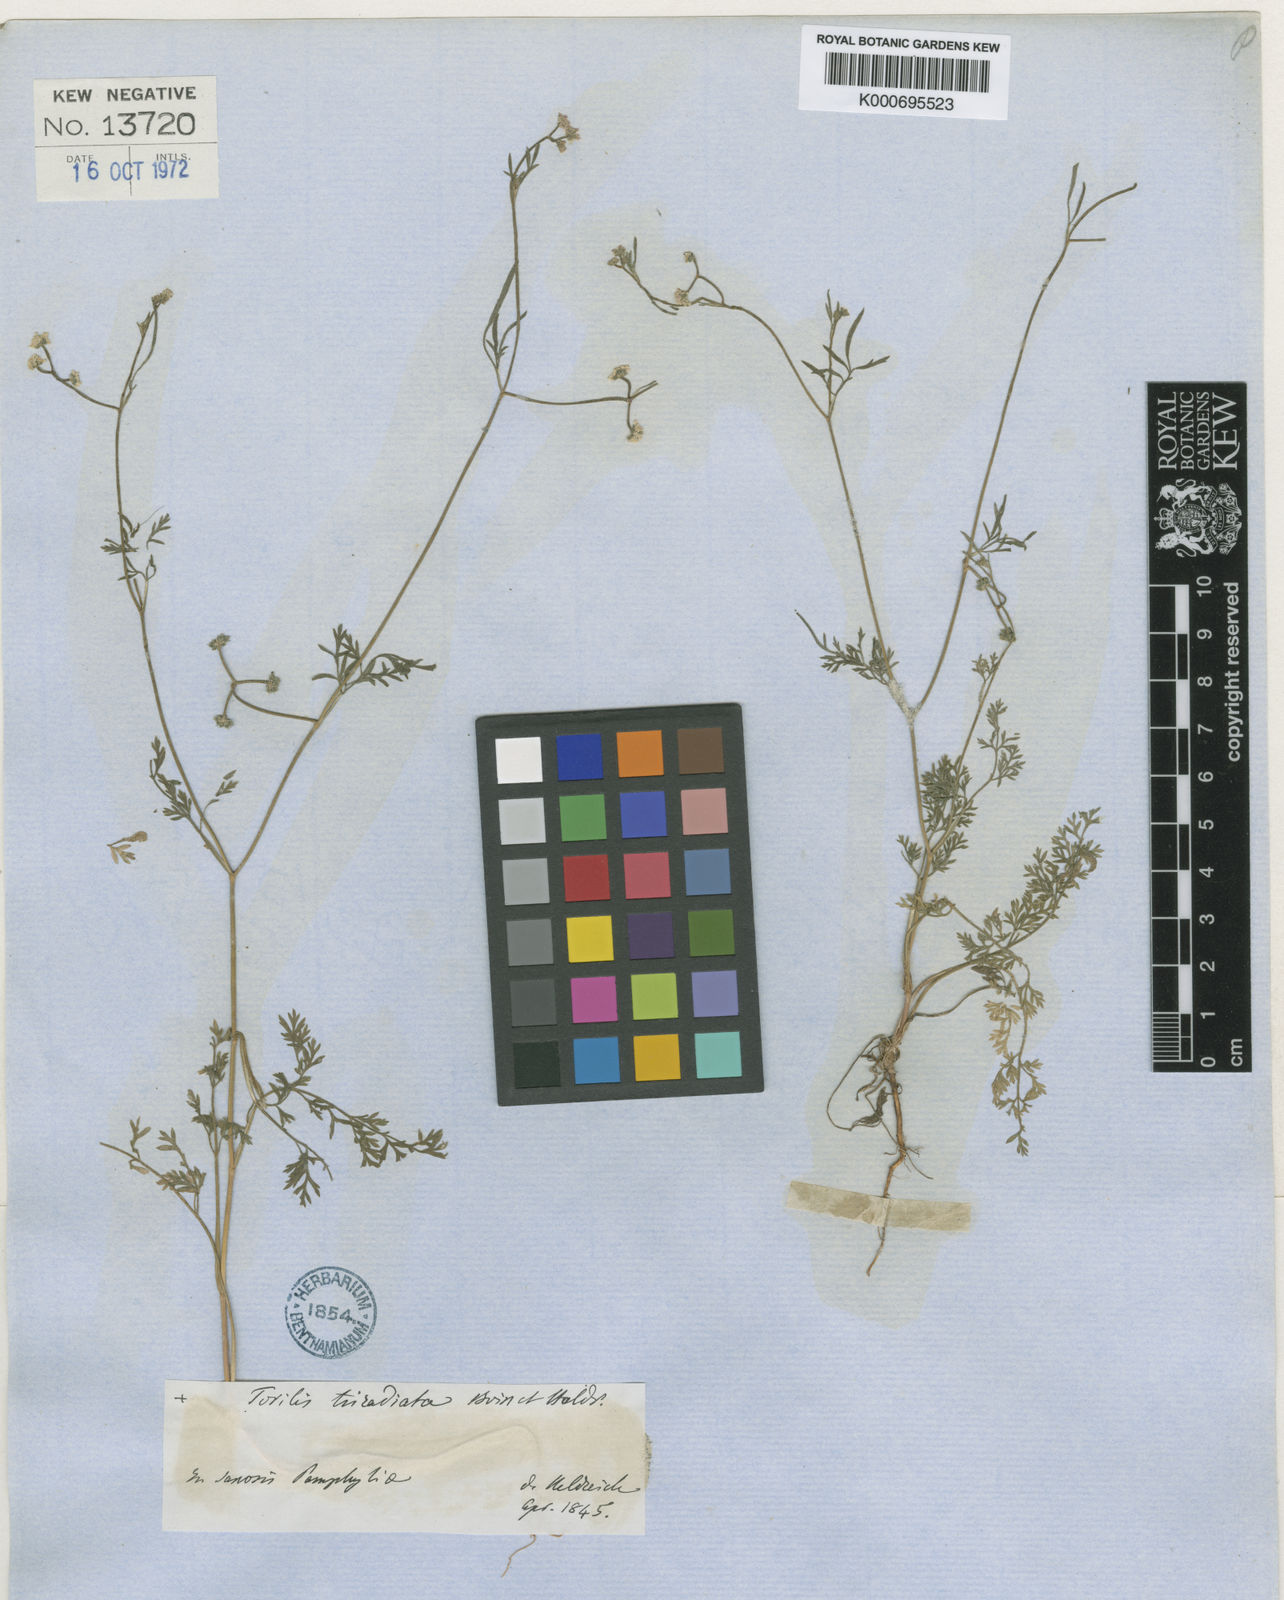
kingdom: Plantae
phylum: Tracheophyta
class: Magnoliopsida
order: Apiales
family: Apiaceae
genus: Torilis
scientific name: Torilis triradiata
